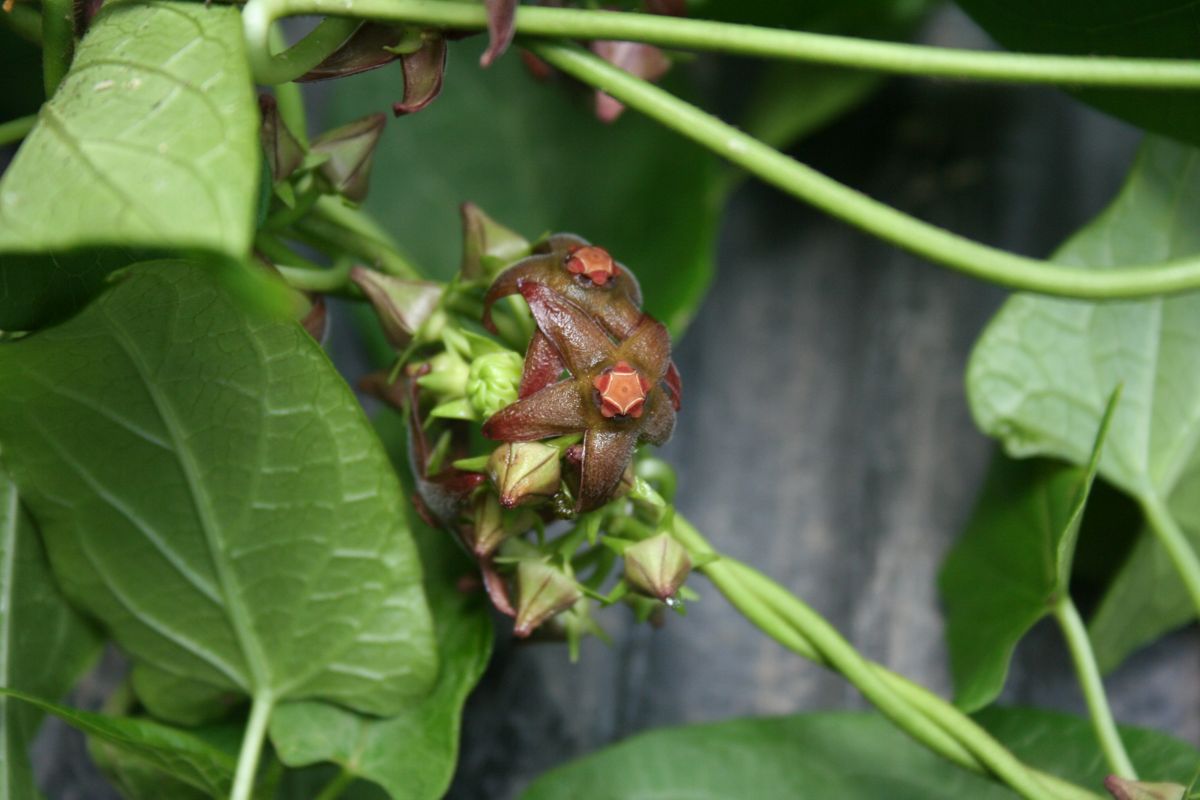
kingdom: Plantae
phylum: Tracheophyta
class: Liliopsida
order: Liliales
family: Alstroemeriaceae
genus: Bomarea
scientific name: Bomarea edulis
